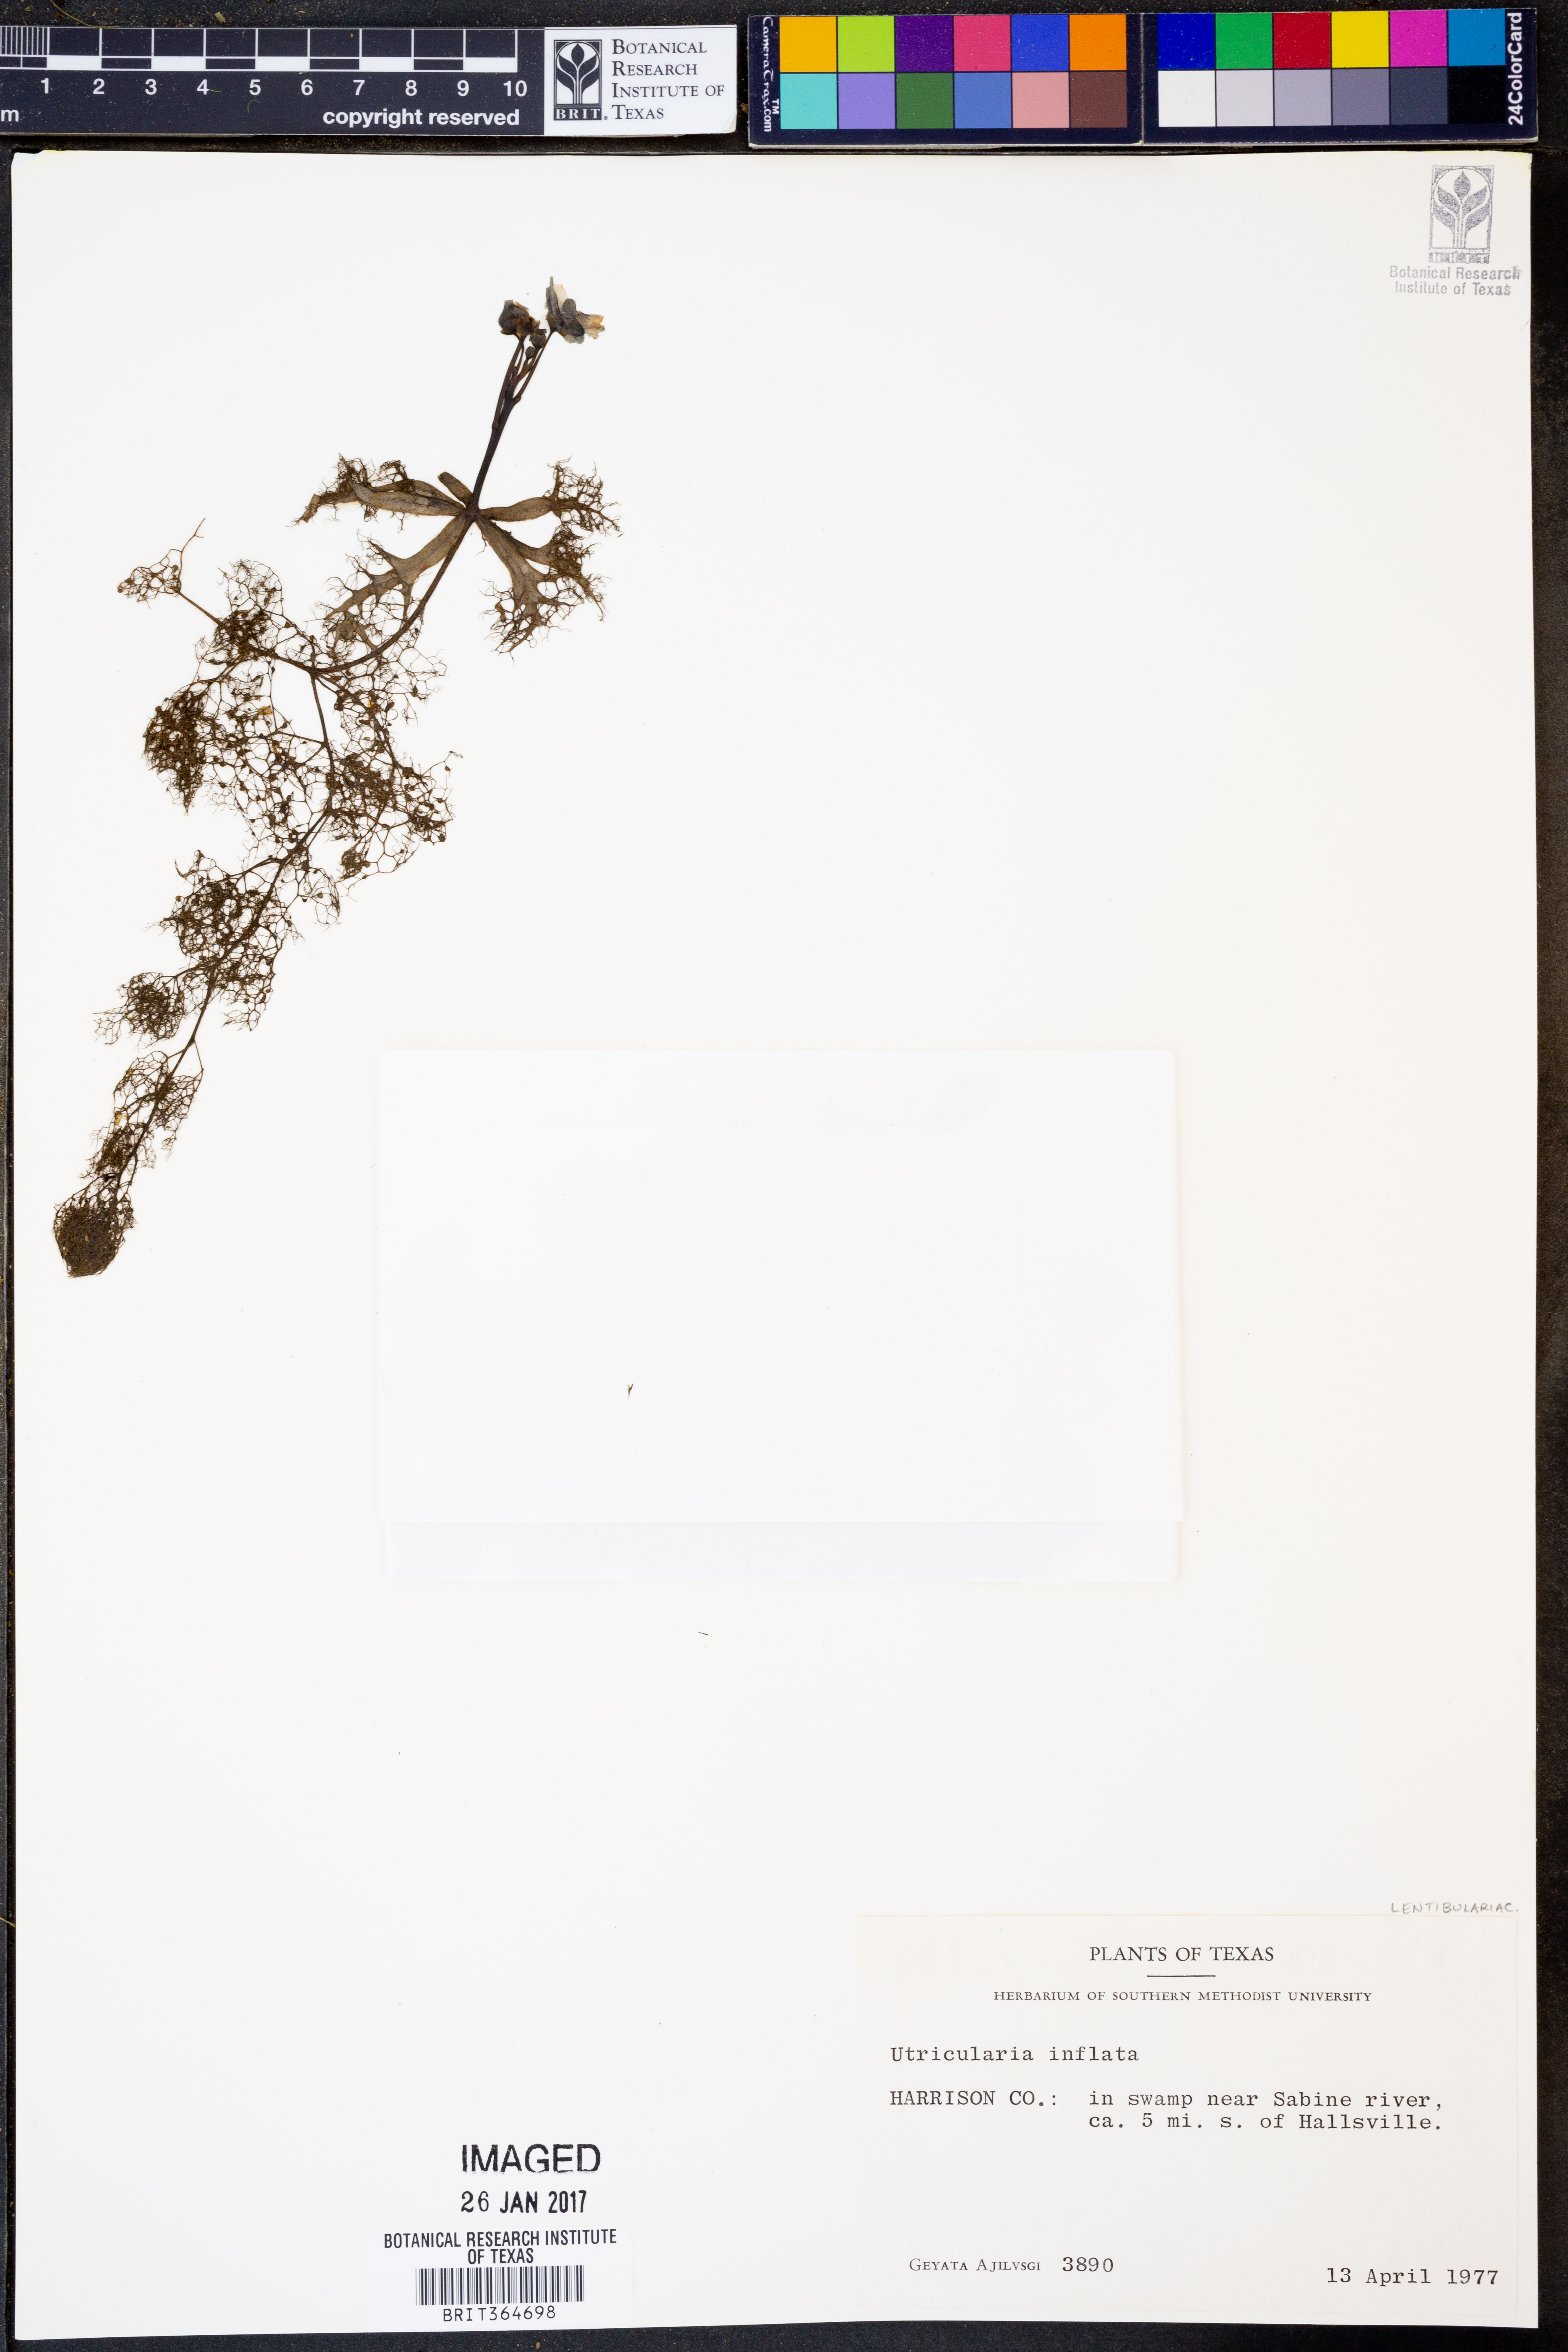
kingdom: Plantae
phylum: Tracheophyta
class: Magnoliopsida
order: Lamiales
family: Lentibulariaceae
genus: Utricularia
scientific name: Utricularia inflata
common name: Floating bladderwort
